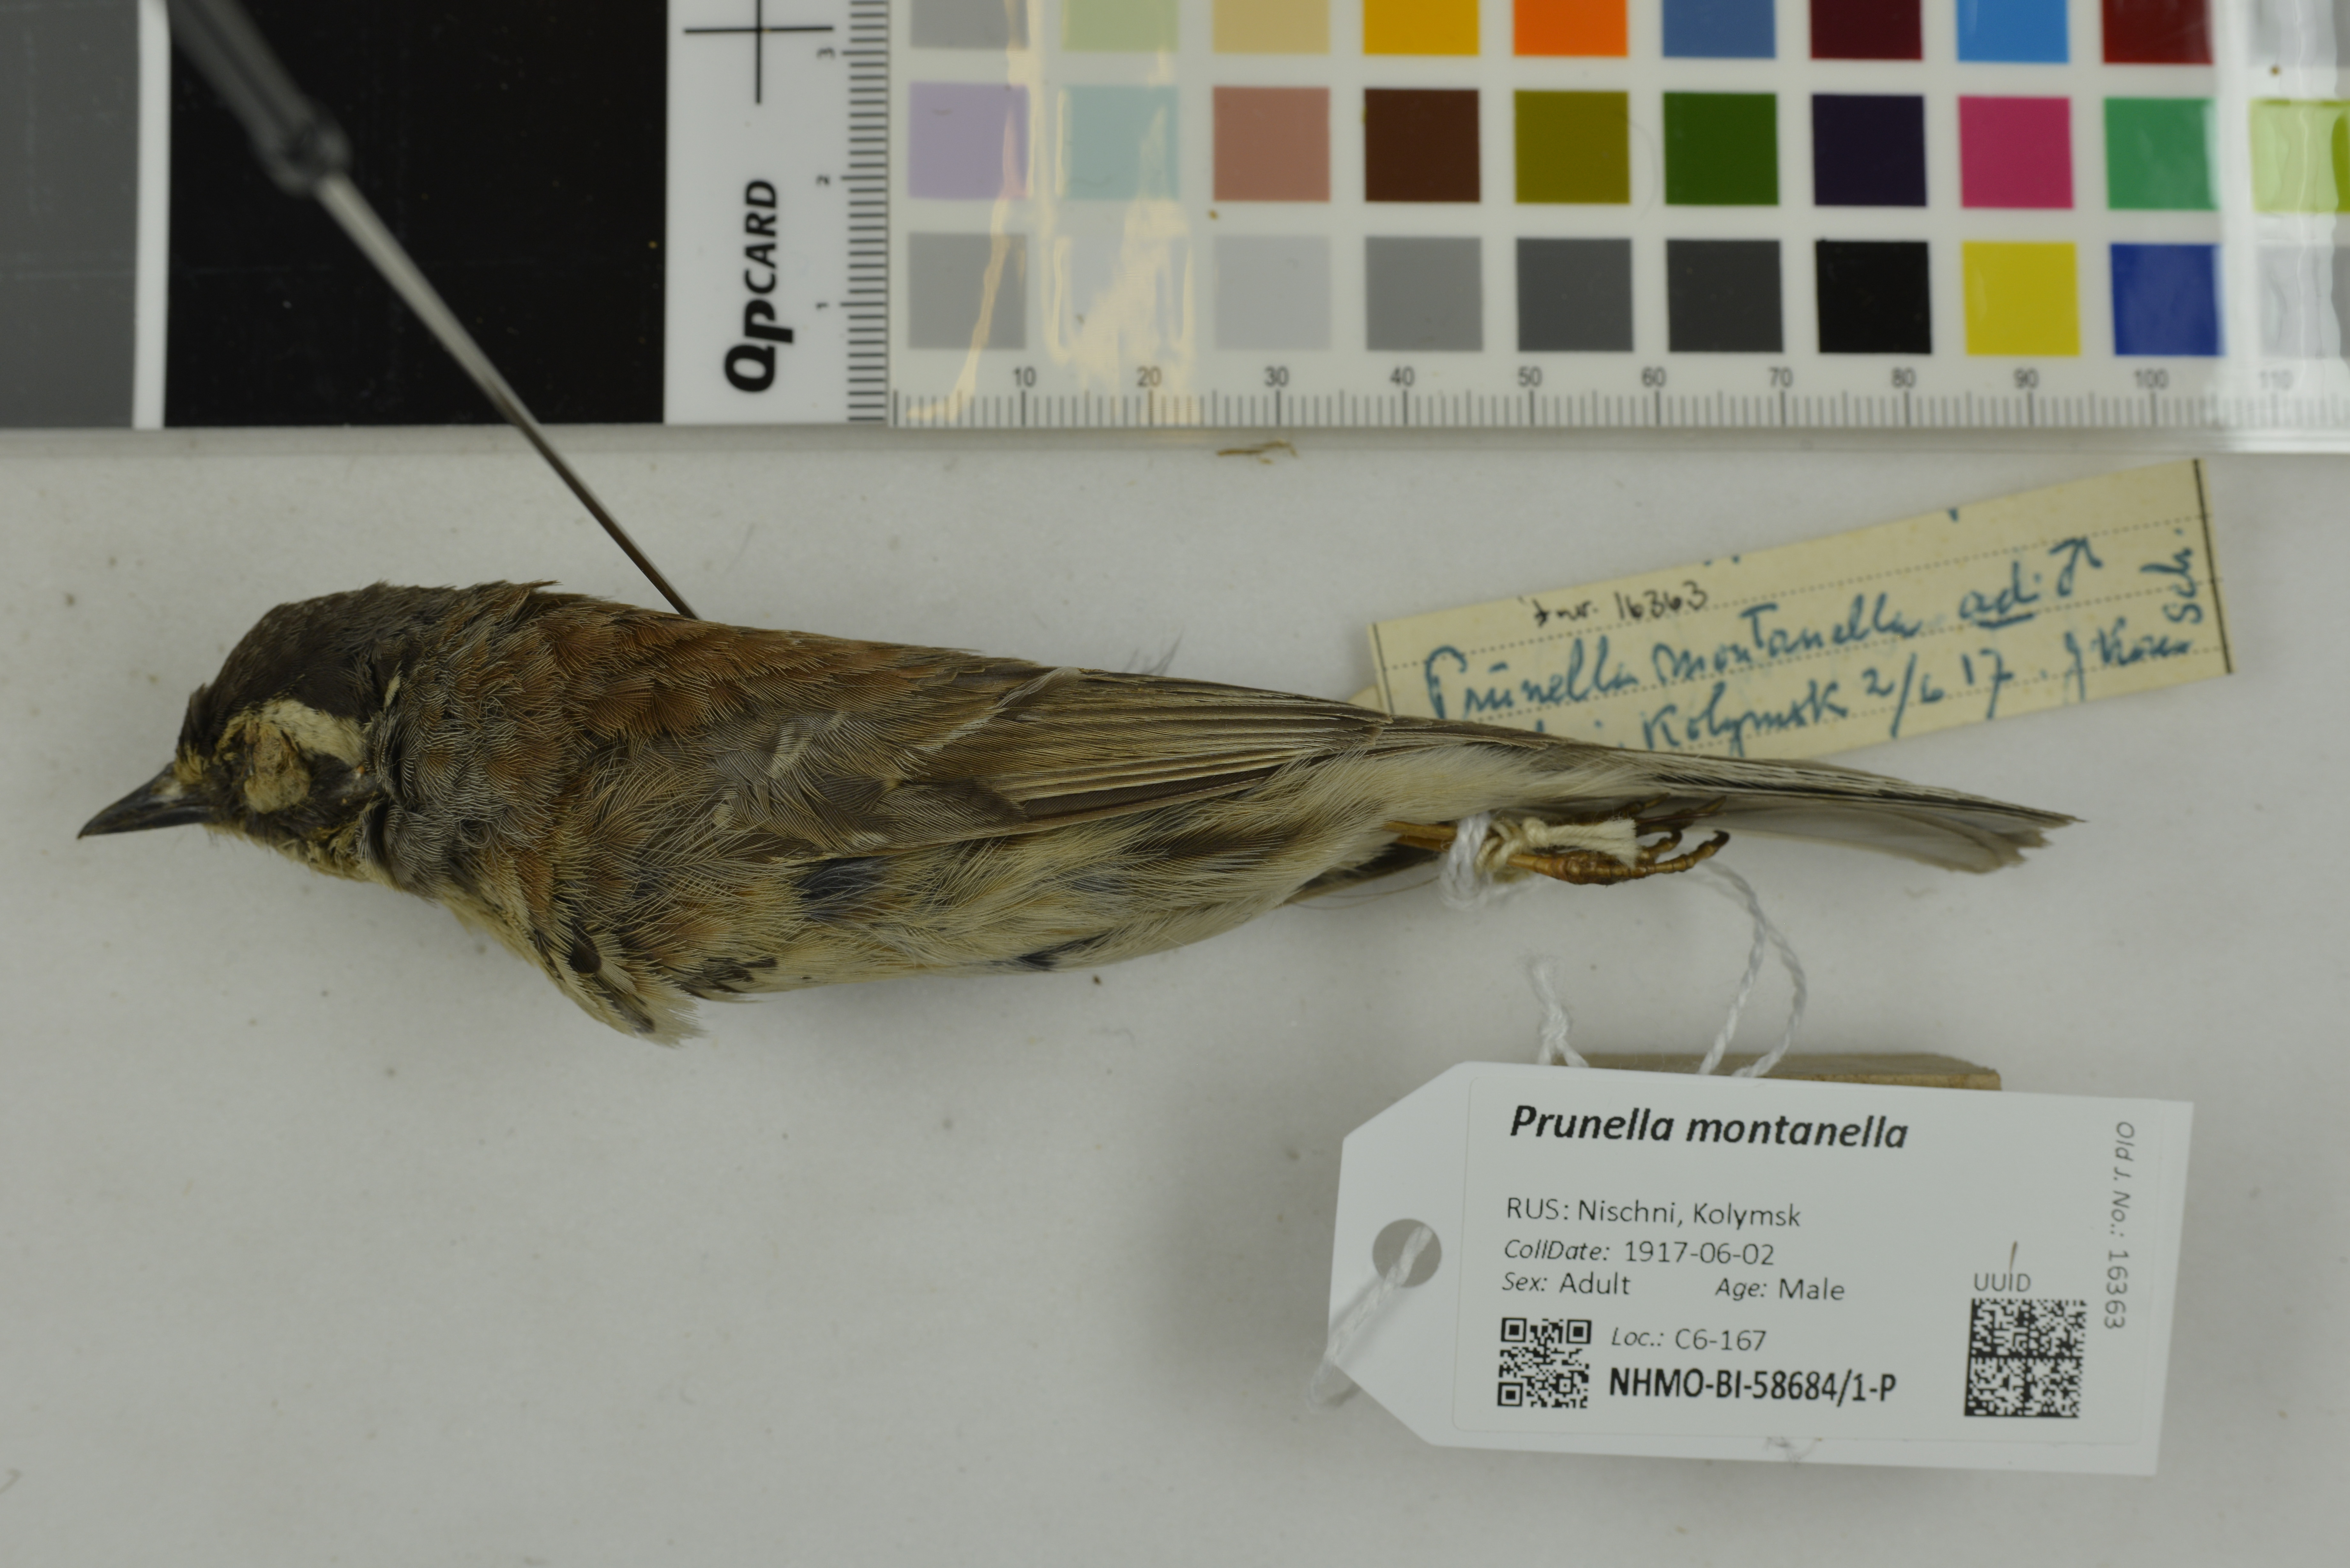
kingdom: Animalia
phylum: Chordata
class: Aves
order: Passeriformes
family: Prunellidae
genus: Prunella
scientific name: Prunella montanella
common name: Siberian accentor
